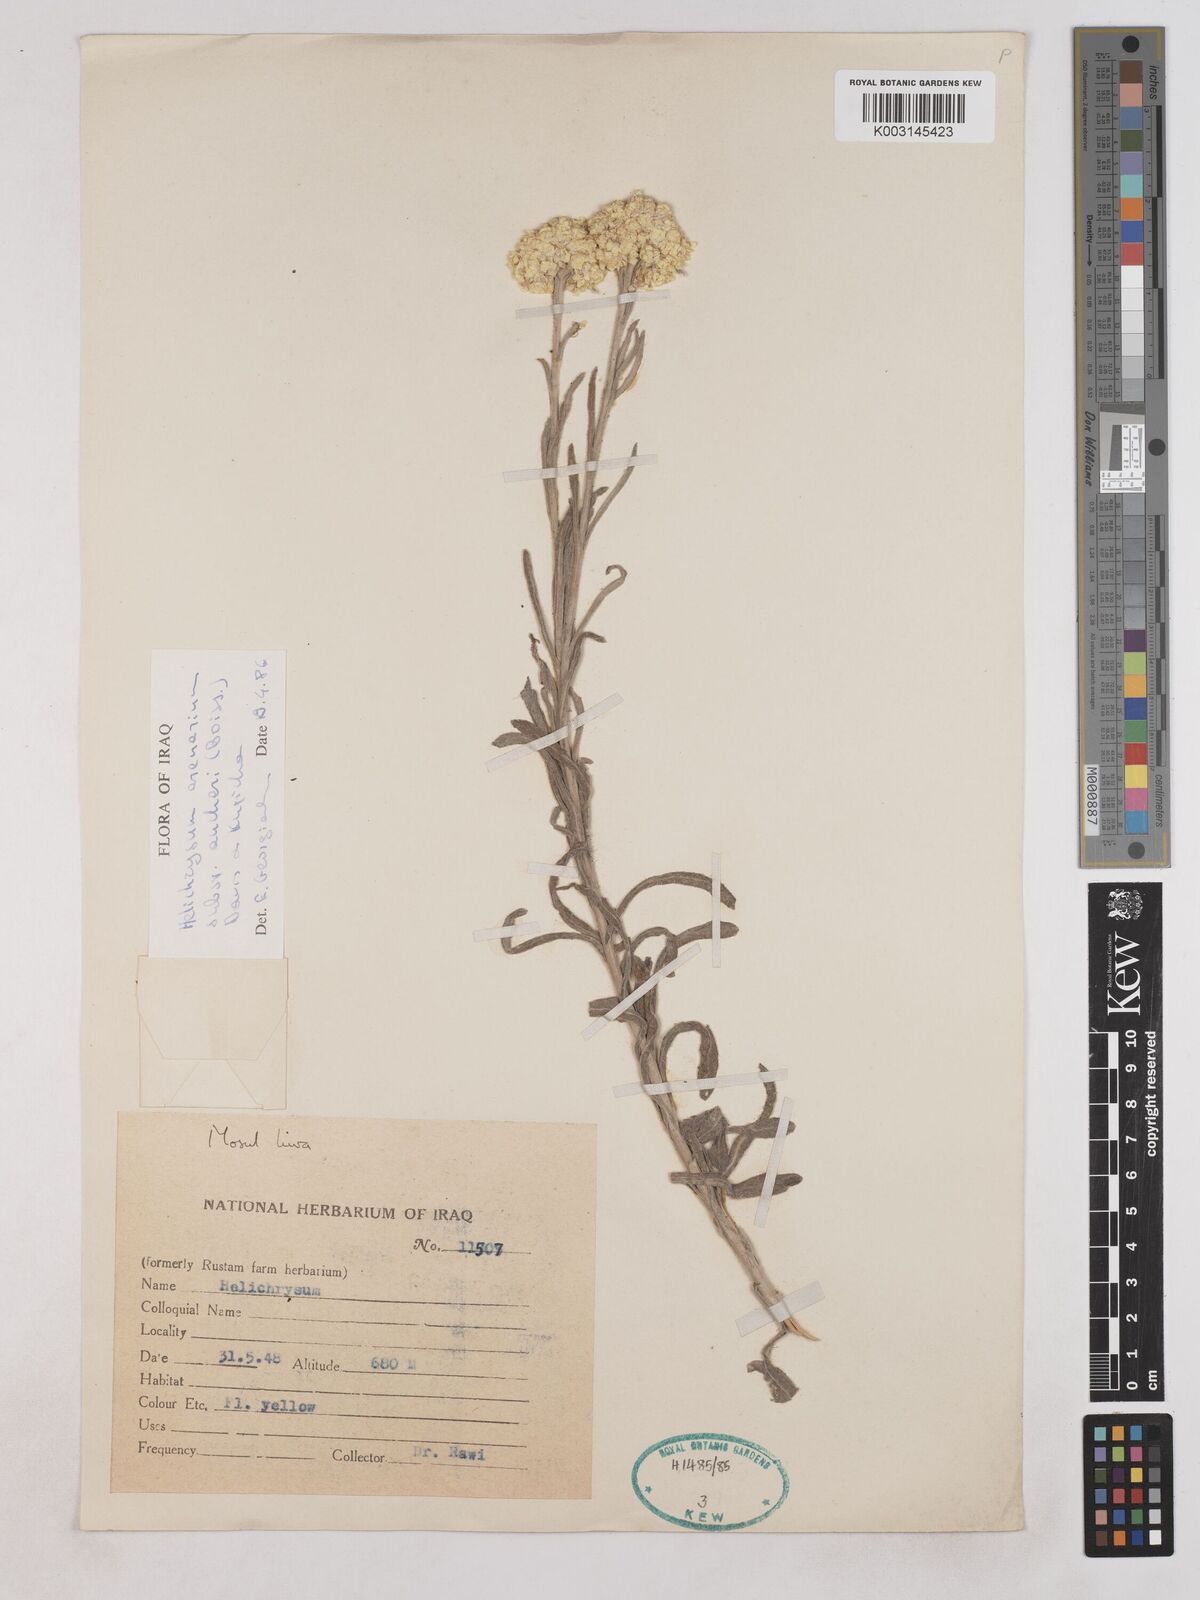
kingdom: Plantae
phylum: Tracheophyta
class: Magnoliopsida
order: Asterales
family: Asteraceae
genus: Helichrysum
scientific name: Helichrysum arenarium
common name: Strawflower
